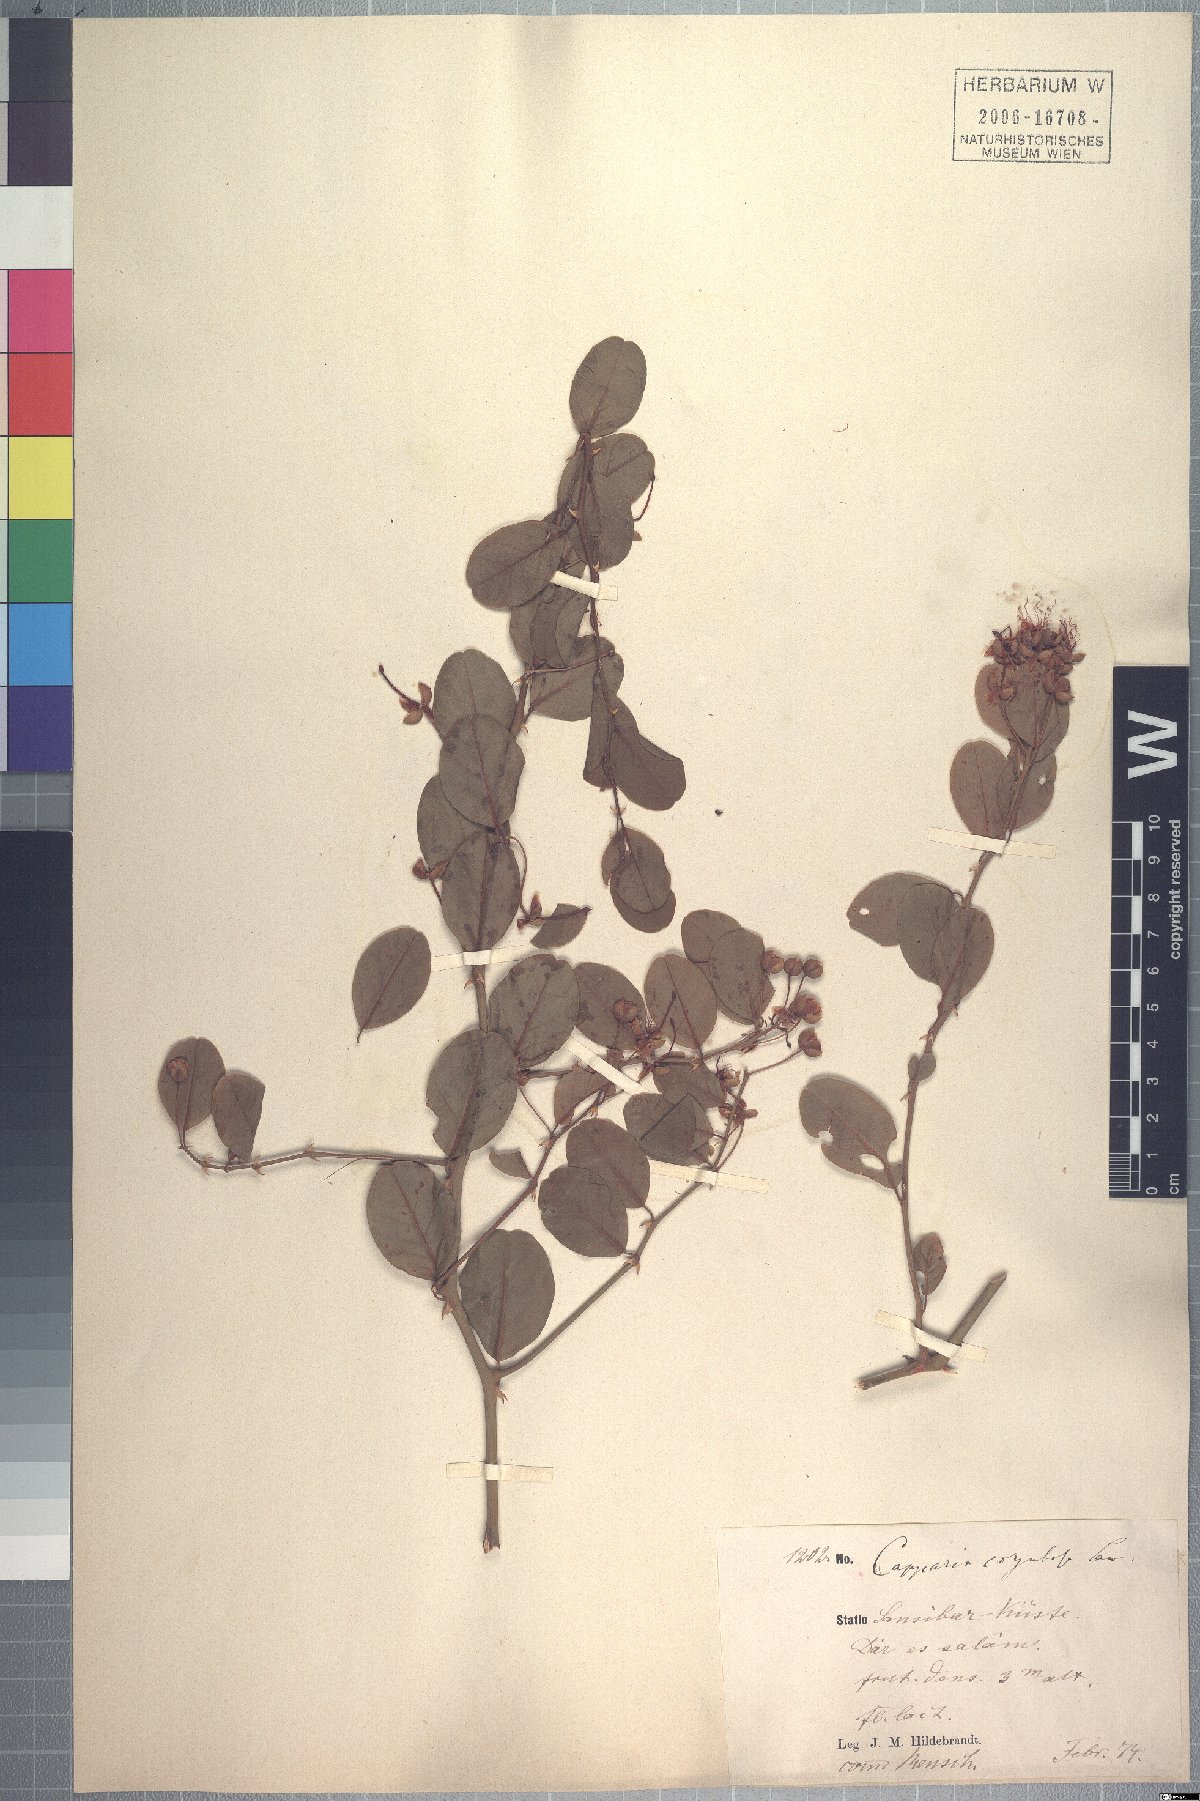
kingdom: Plantae
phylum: Tracheophyta
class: Magnoliopsida
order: Brassicales
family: Capparaceae
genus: Capparis
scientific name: Capparis sepiaria
